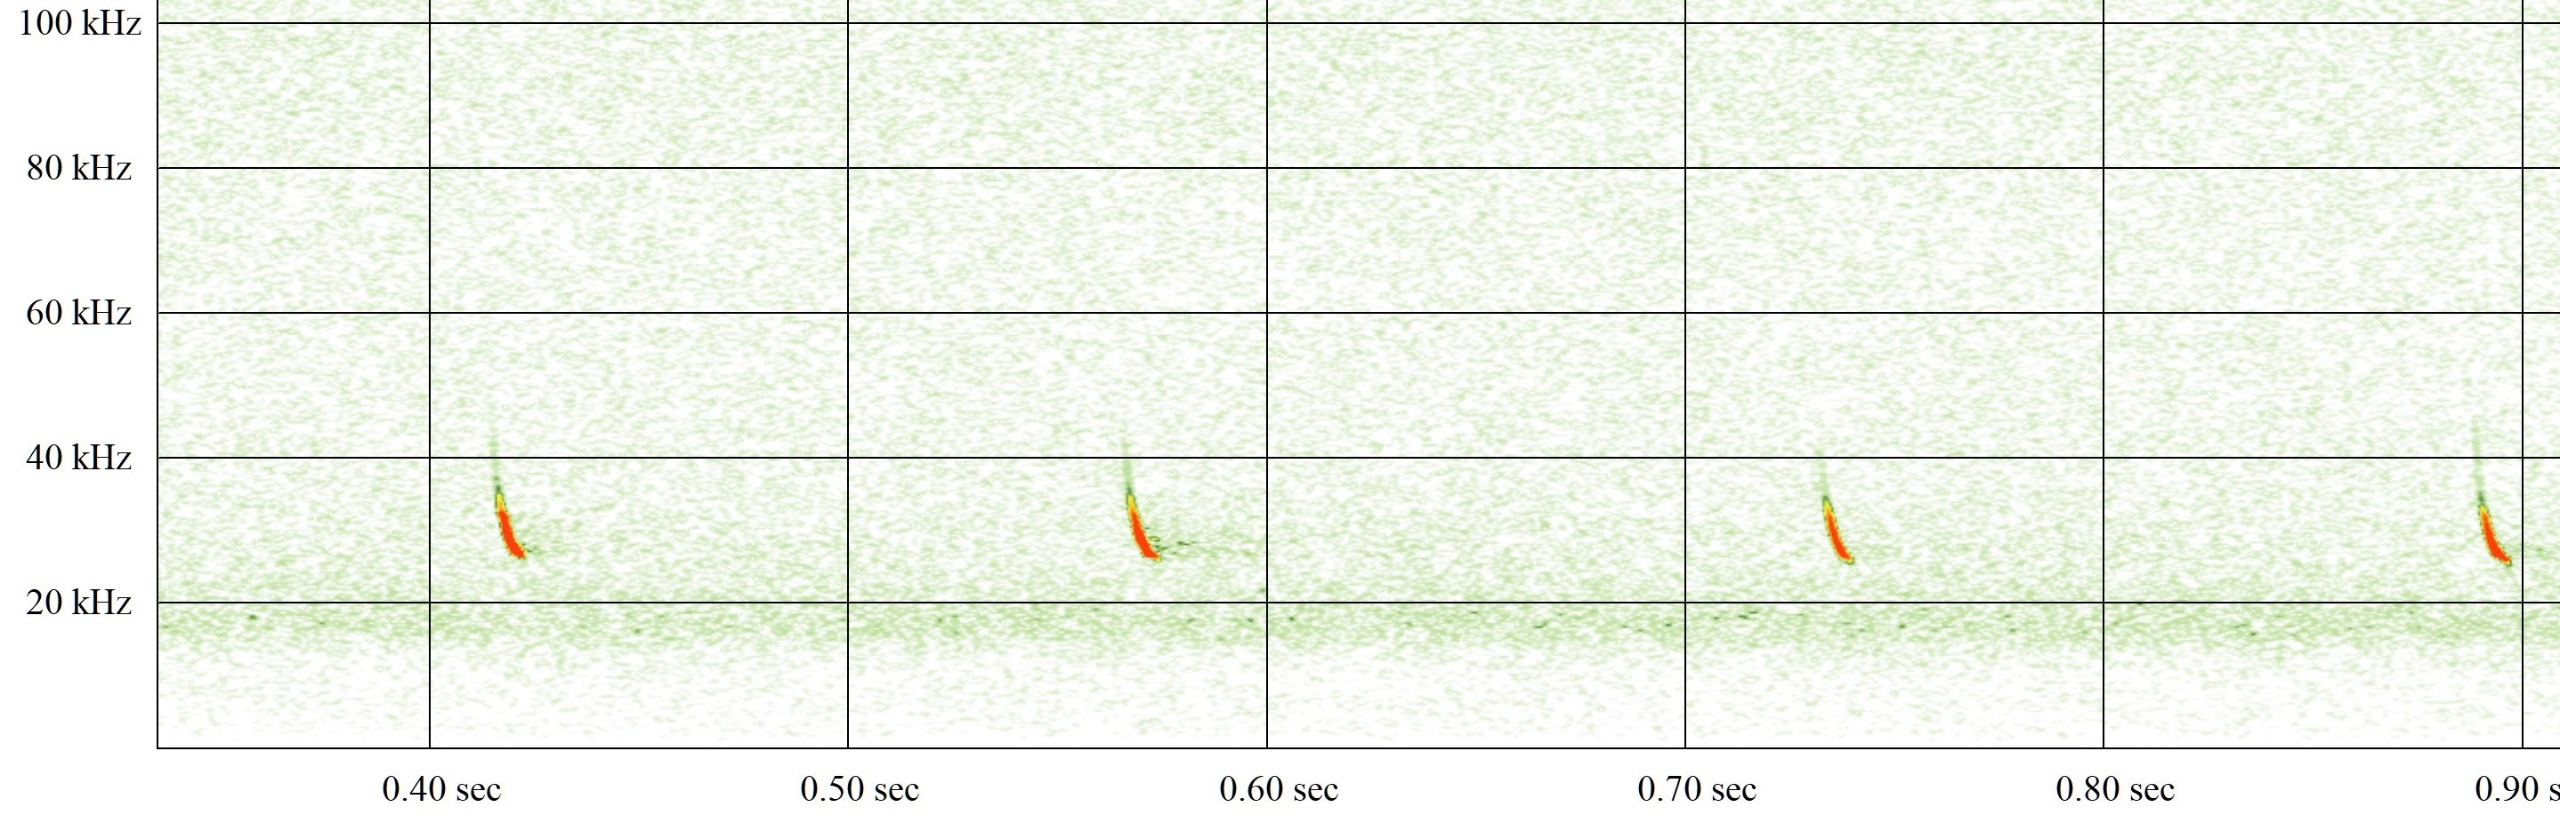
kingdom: Animalia
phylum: Chordata
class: Mammalia
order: Chiroptera
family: Vespertilionidae
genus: Eptesicus
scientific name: Eptesicus serotinus
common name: Sydflagermus
